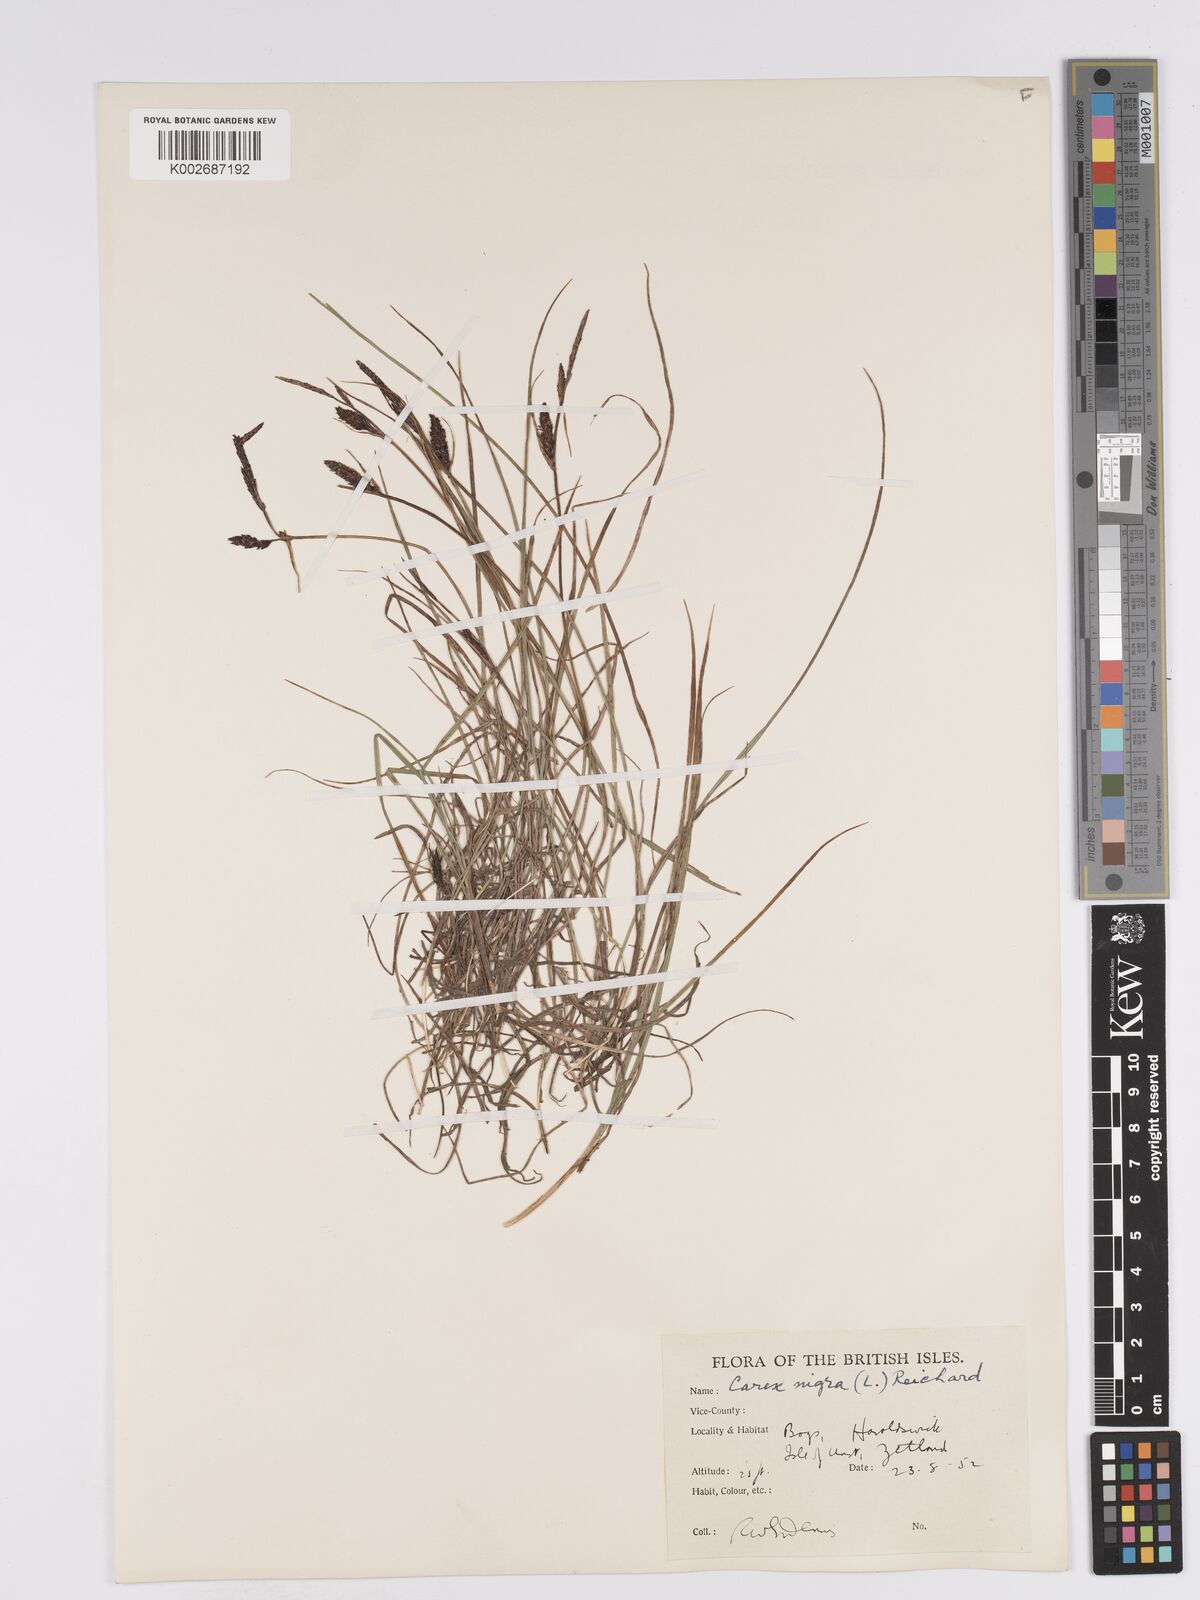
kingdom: Plantae
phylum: Tracheophyta
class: Liliopsida
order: Poales
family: Cyperaceae
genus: Carex
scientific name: Carex nigra
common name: Common sedge
